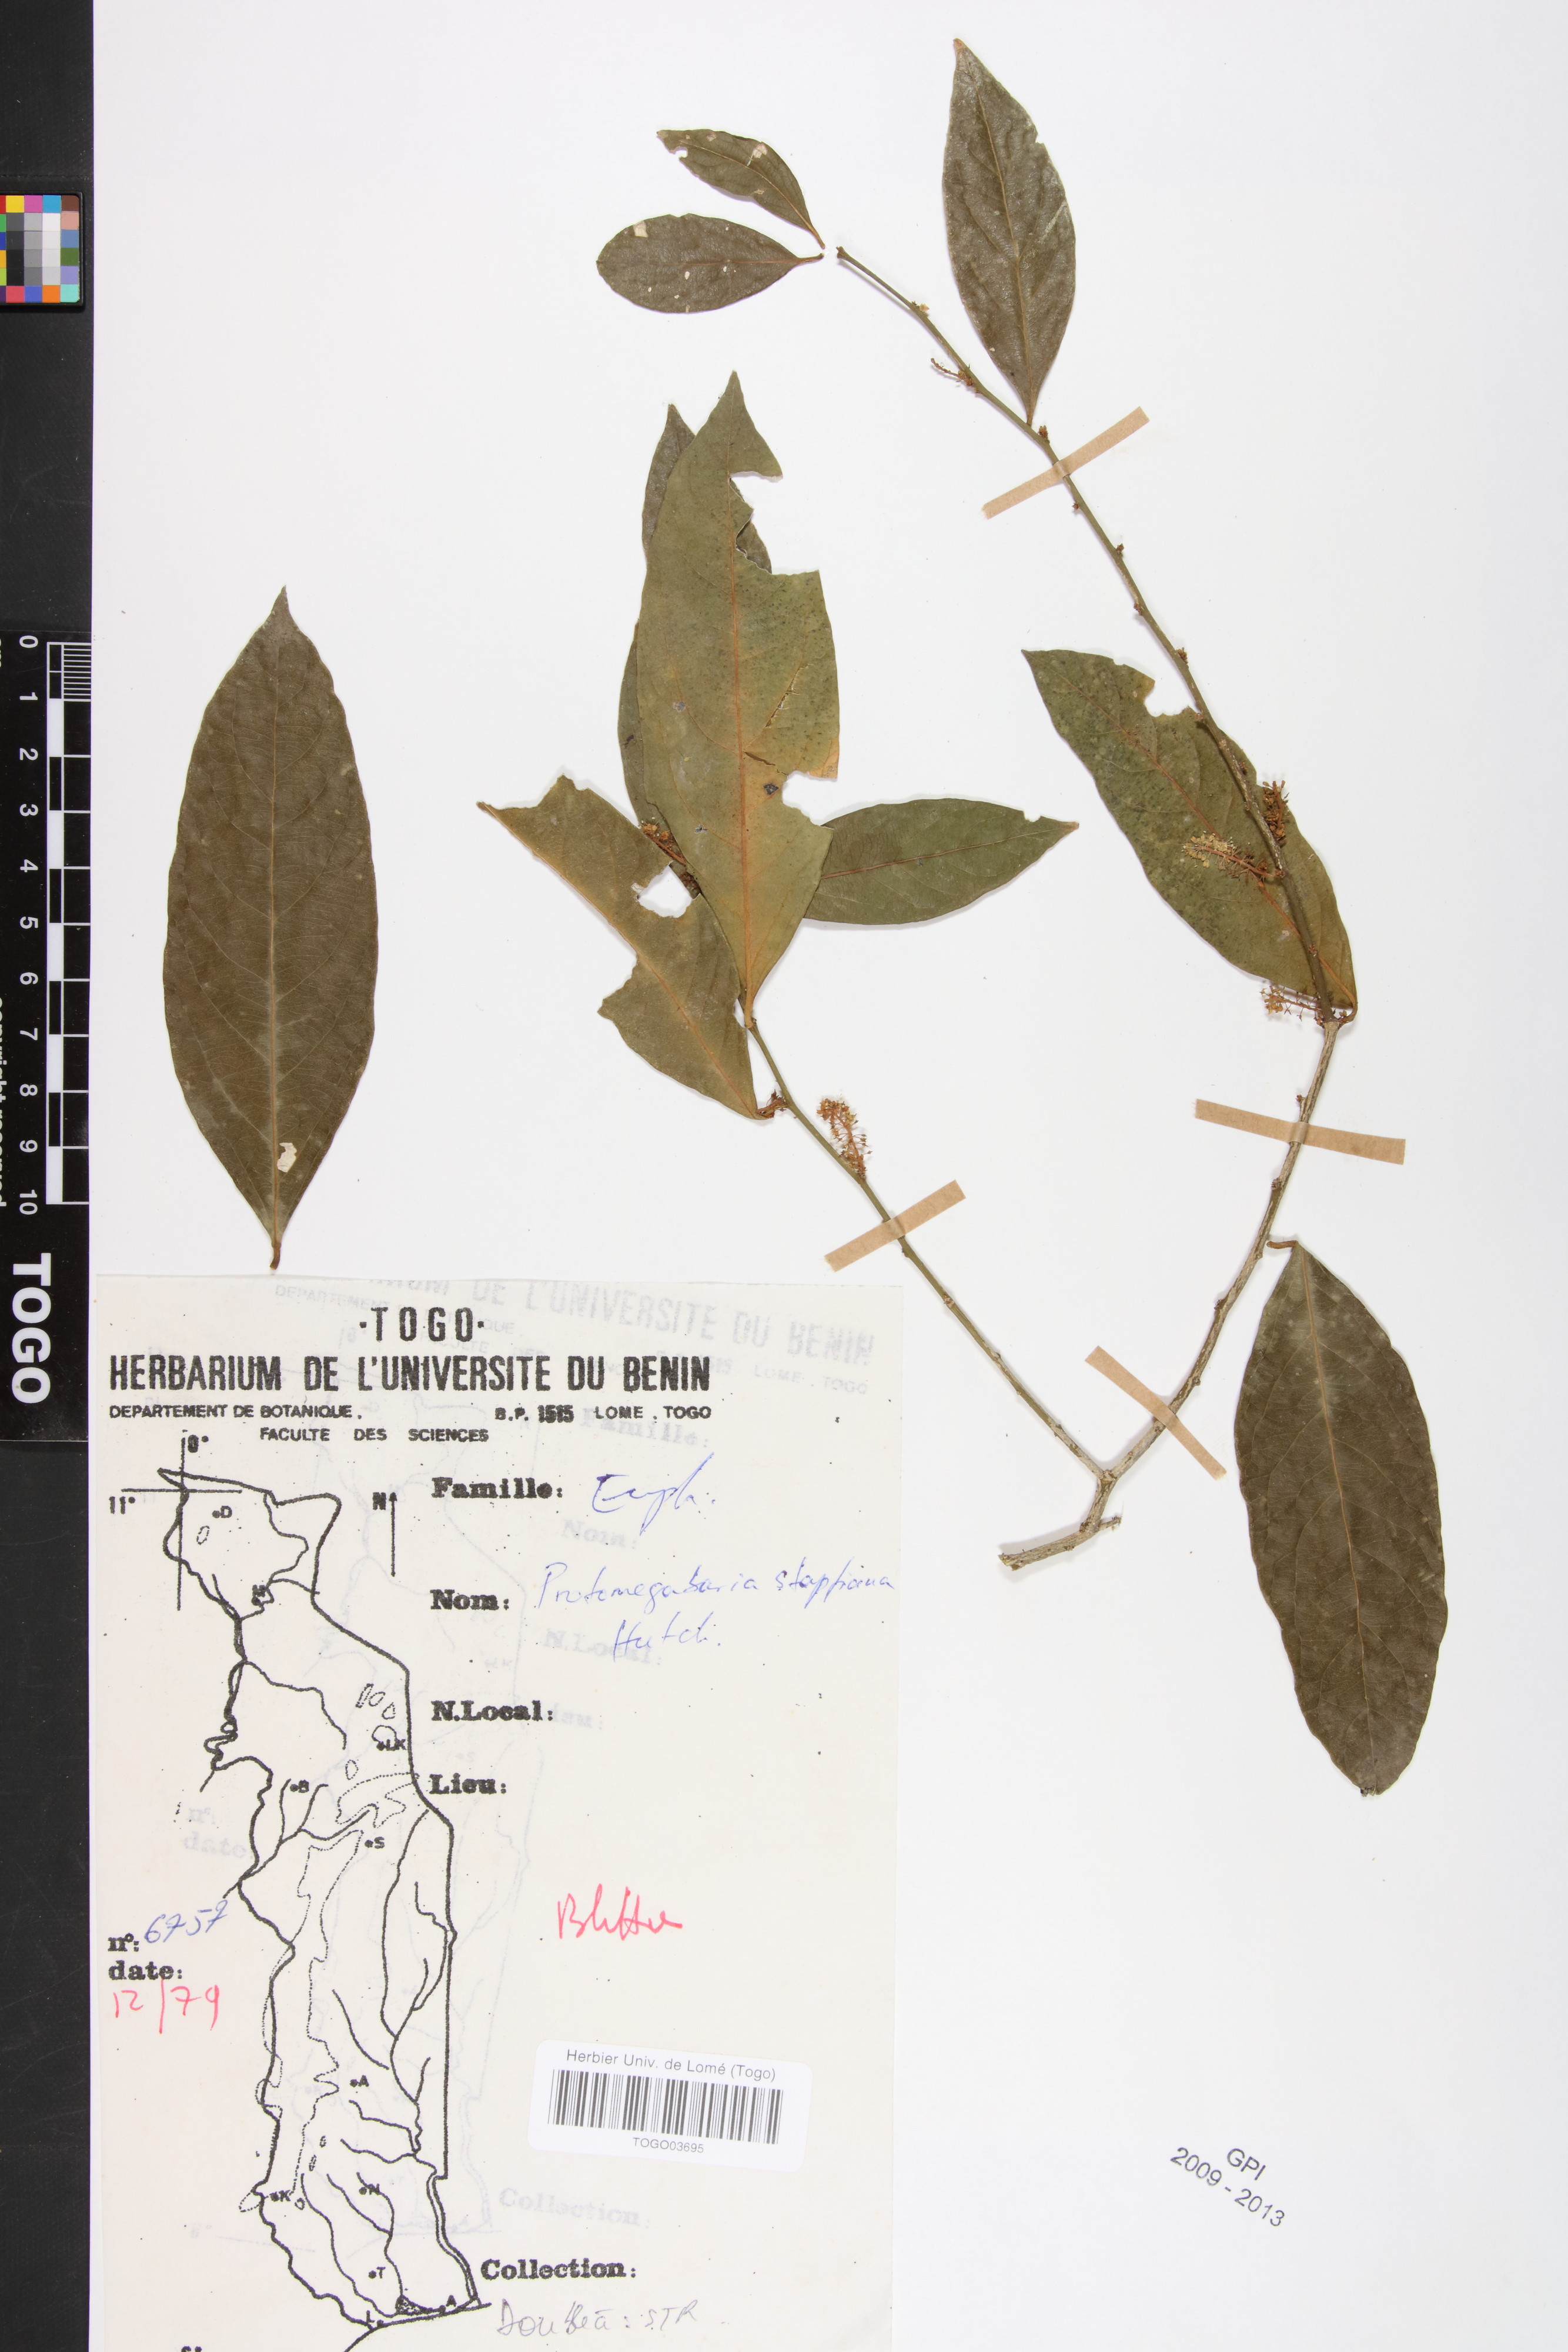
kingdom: Plantae
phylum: Tracheophyta
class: Magnoliopsida
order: Malpighiales
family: Phyllanthaceae
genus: Protomegabaria
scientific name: Protomegabaria stapfiana
